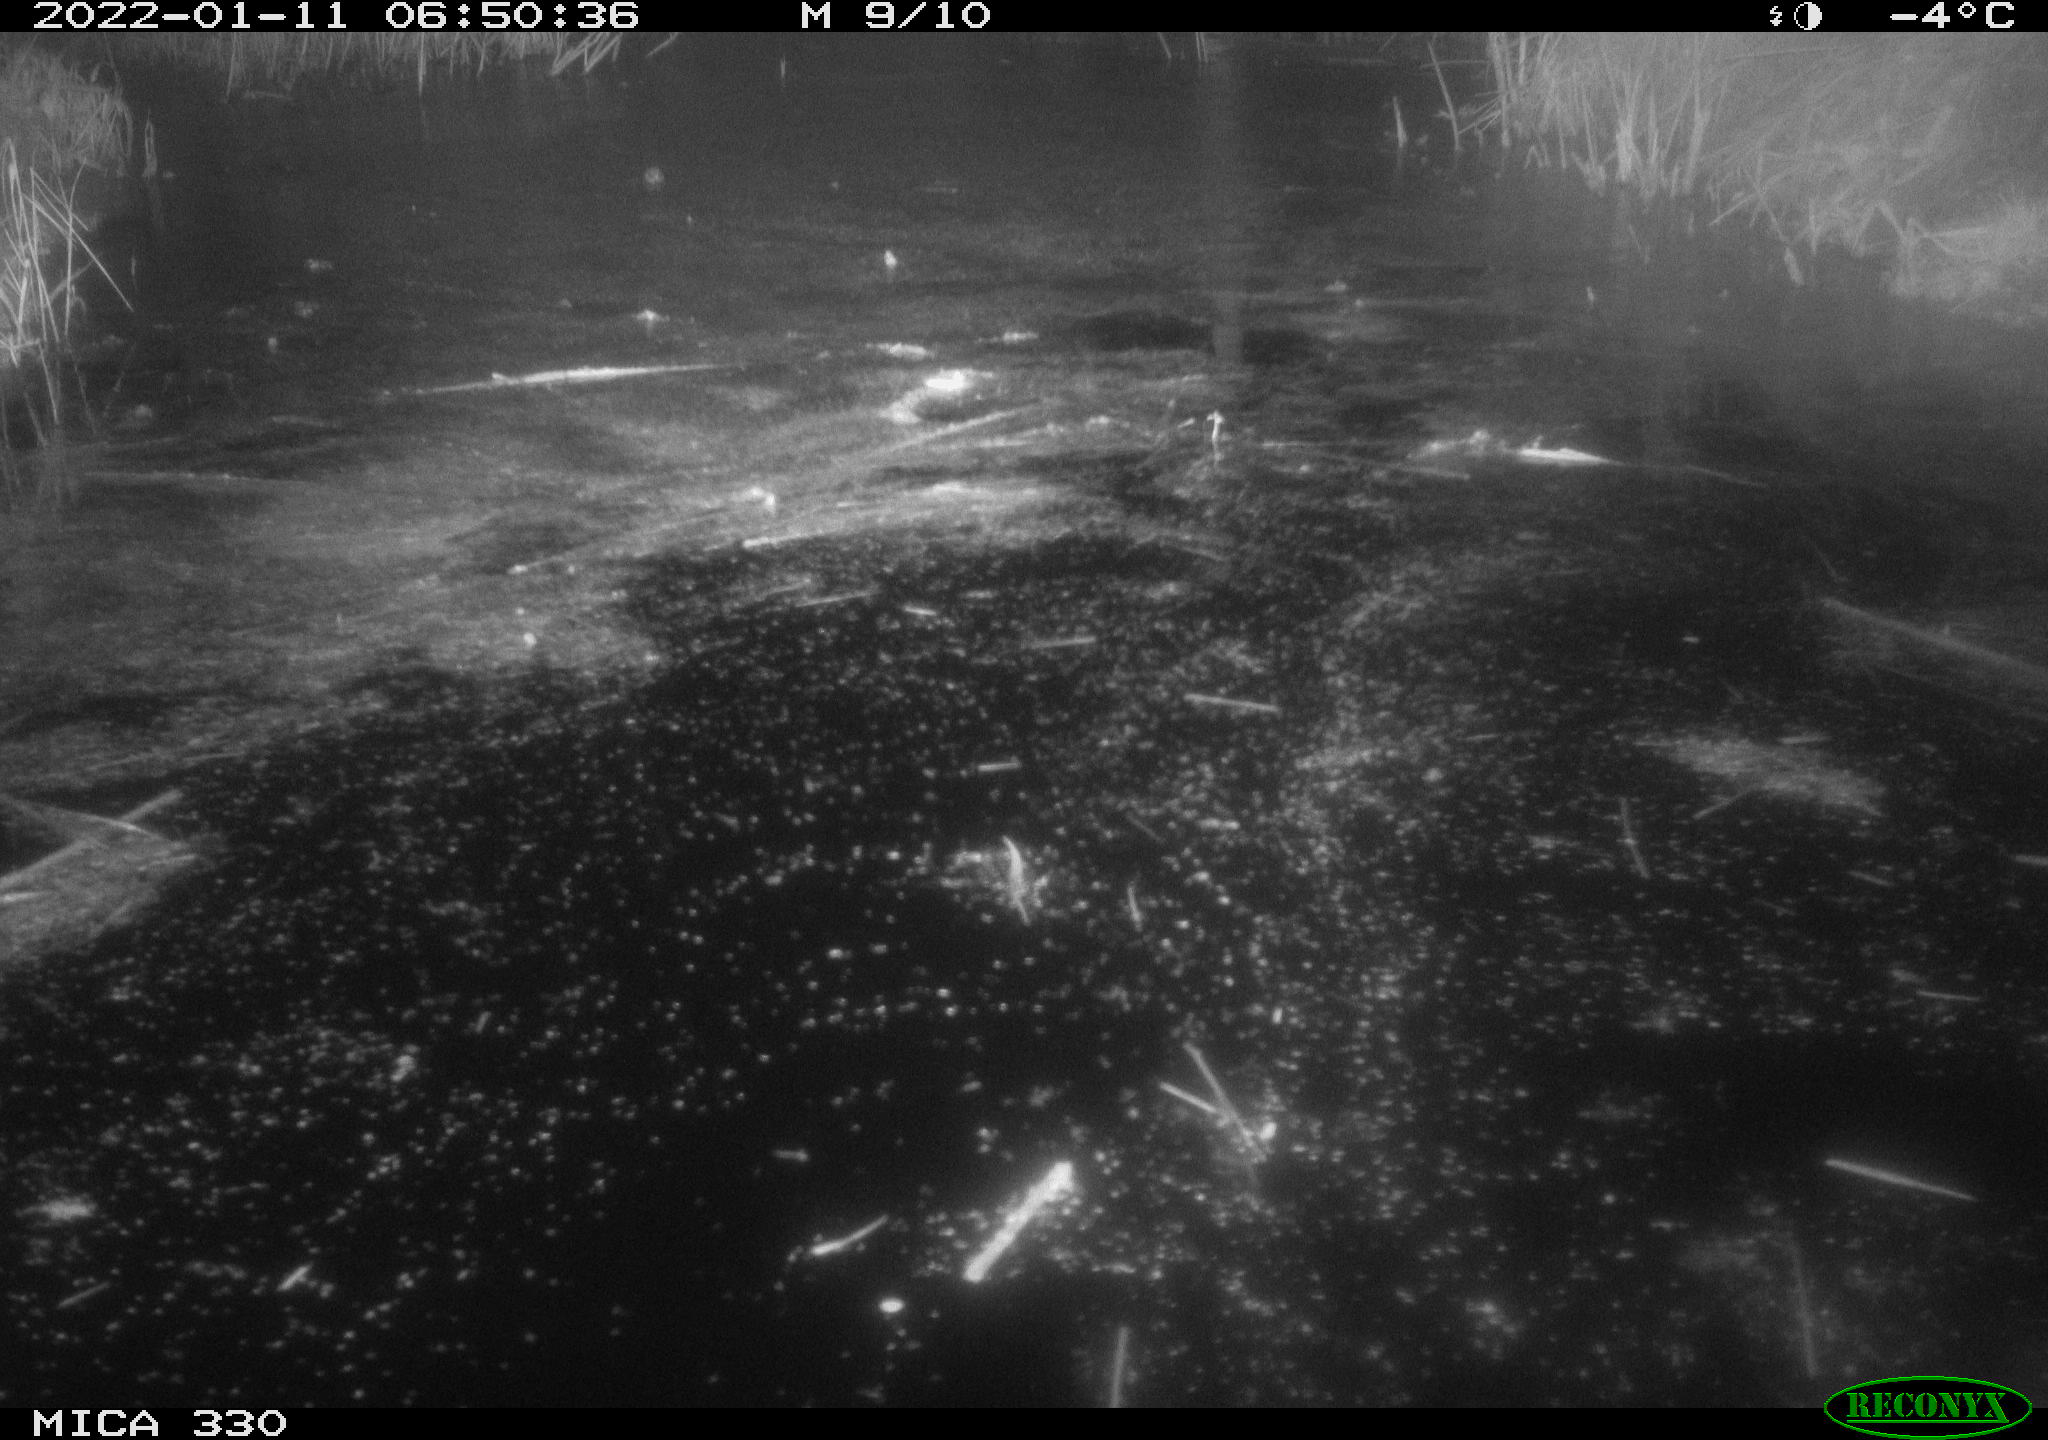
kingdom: Animalia
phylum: Chordata
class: Aves
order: Anseriformes
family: Anatidae
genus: Anas
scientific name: Anas platyrhynchos
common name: Mallard
